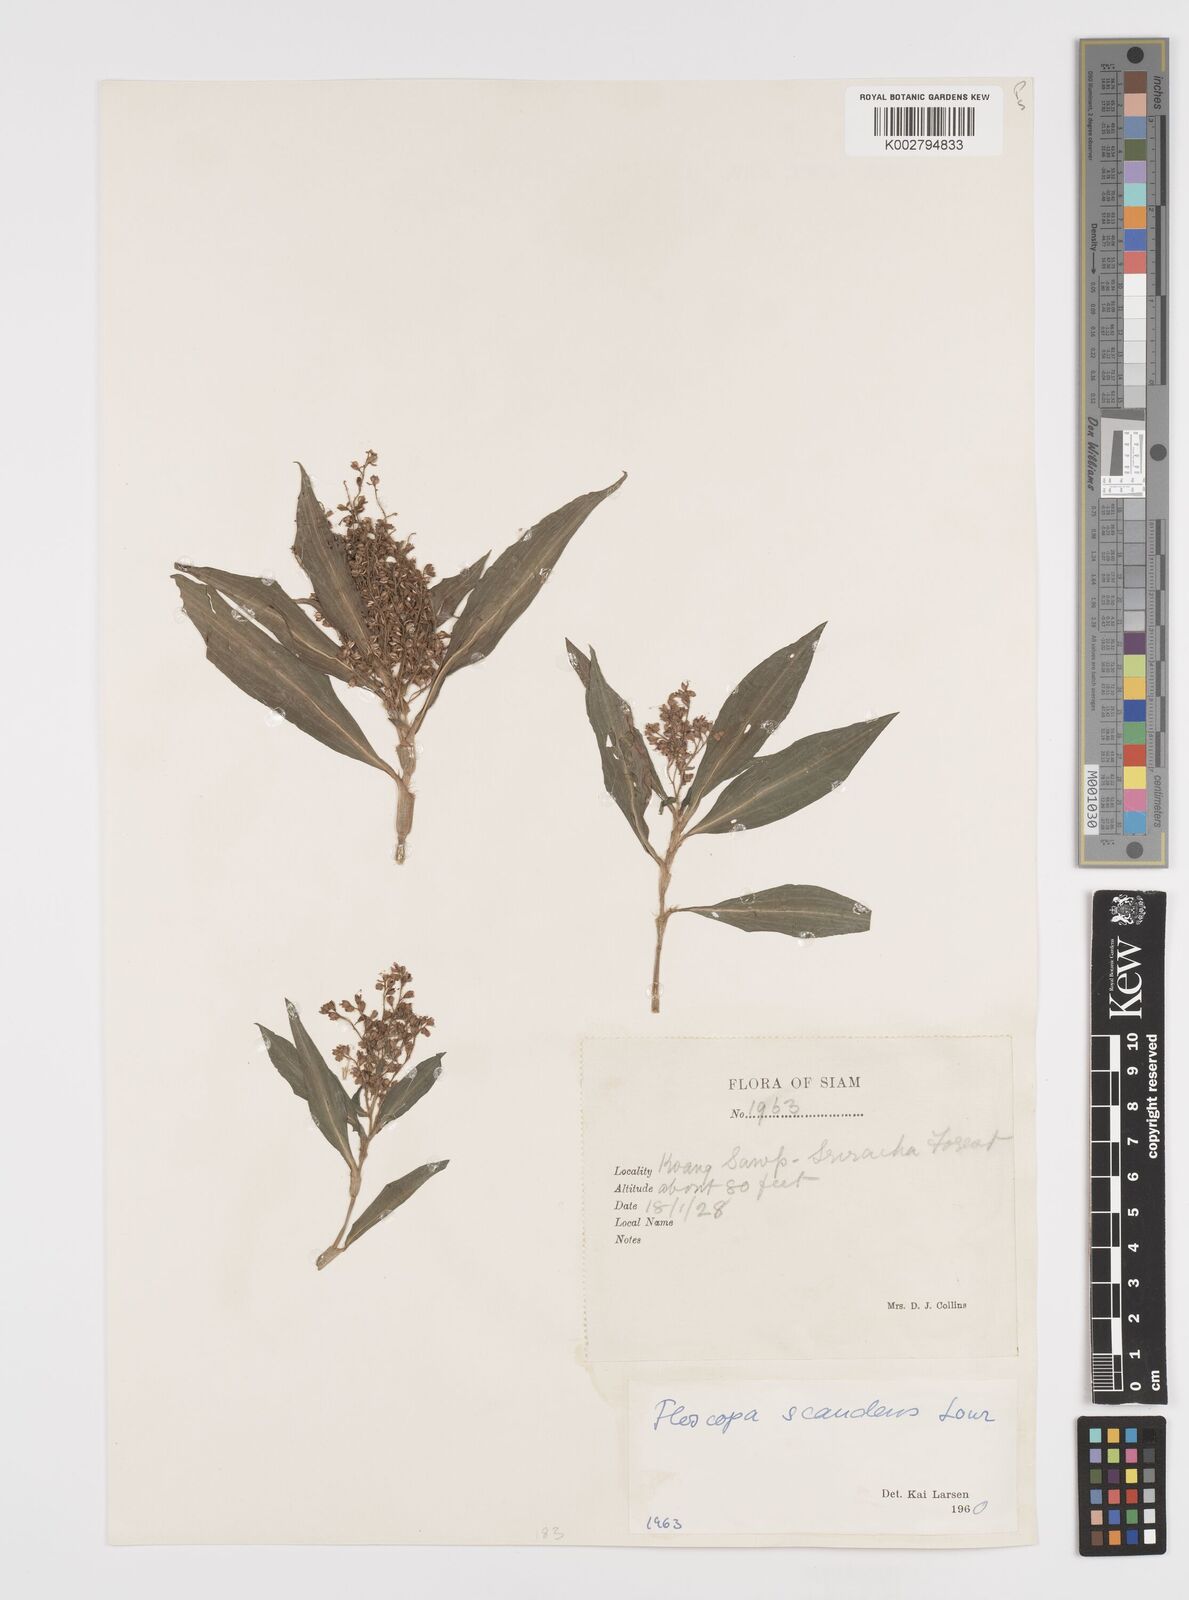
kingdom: Plantae
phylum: Tracheophyta
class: Liliopsida
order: Commelinales
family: Commelinaceae
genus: Floscopa
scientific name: Floscopa scandens
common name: Climbing flower cup
